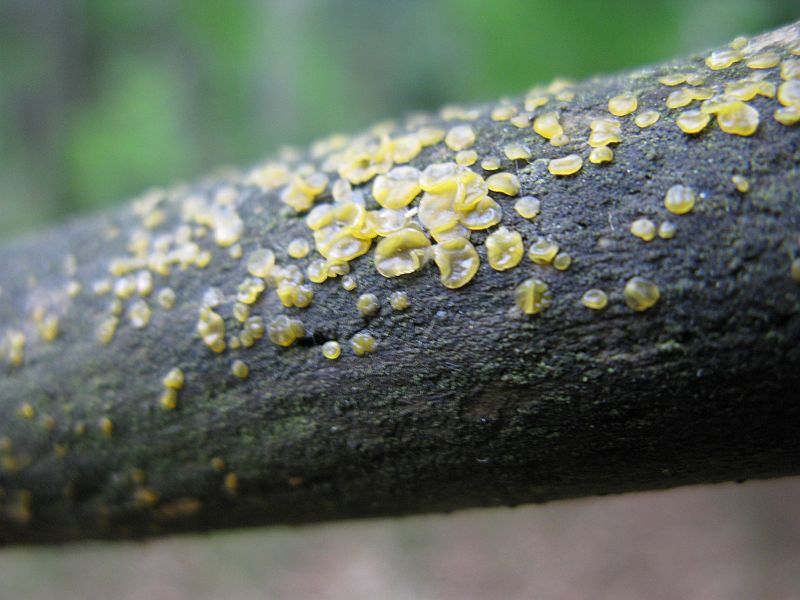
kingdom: Fungi
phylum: Basidiomycota
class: Dacrymycetes
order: Dacrymycetales
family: Dacrymycetaceae
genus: Dacrymyces
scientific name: Dacrymyces lacrymalis
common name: rynket tåresvamp
